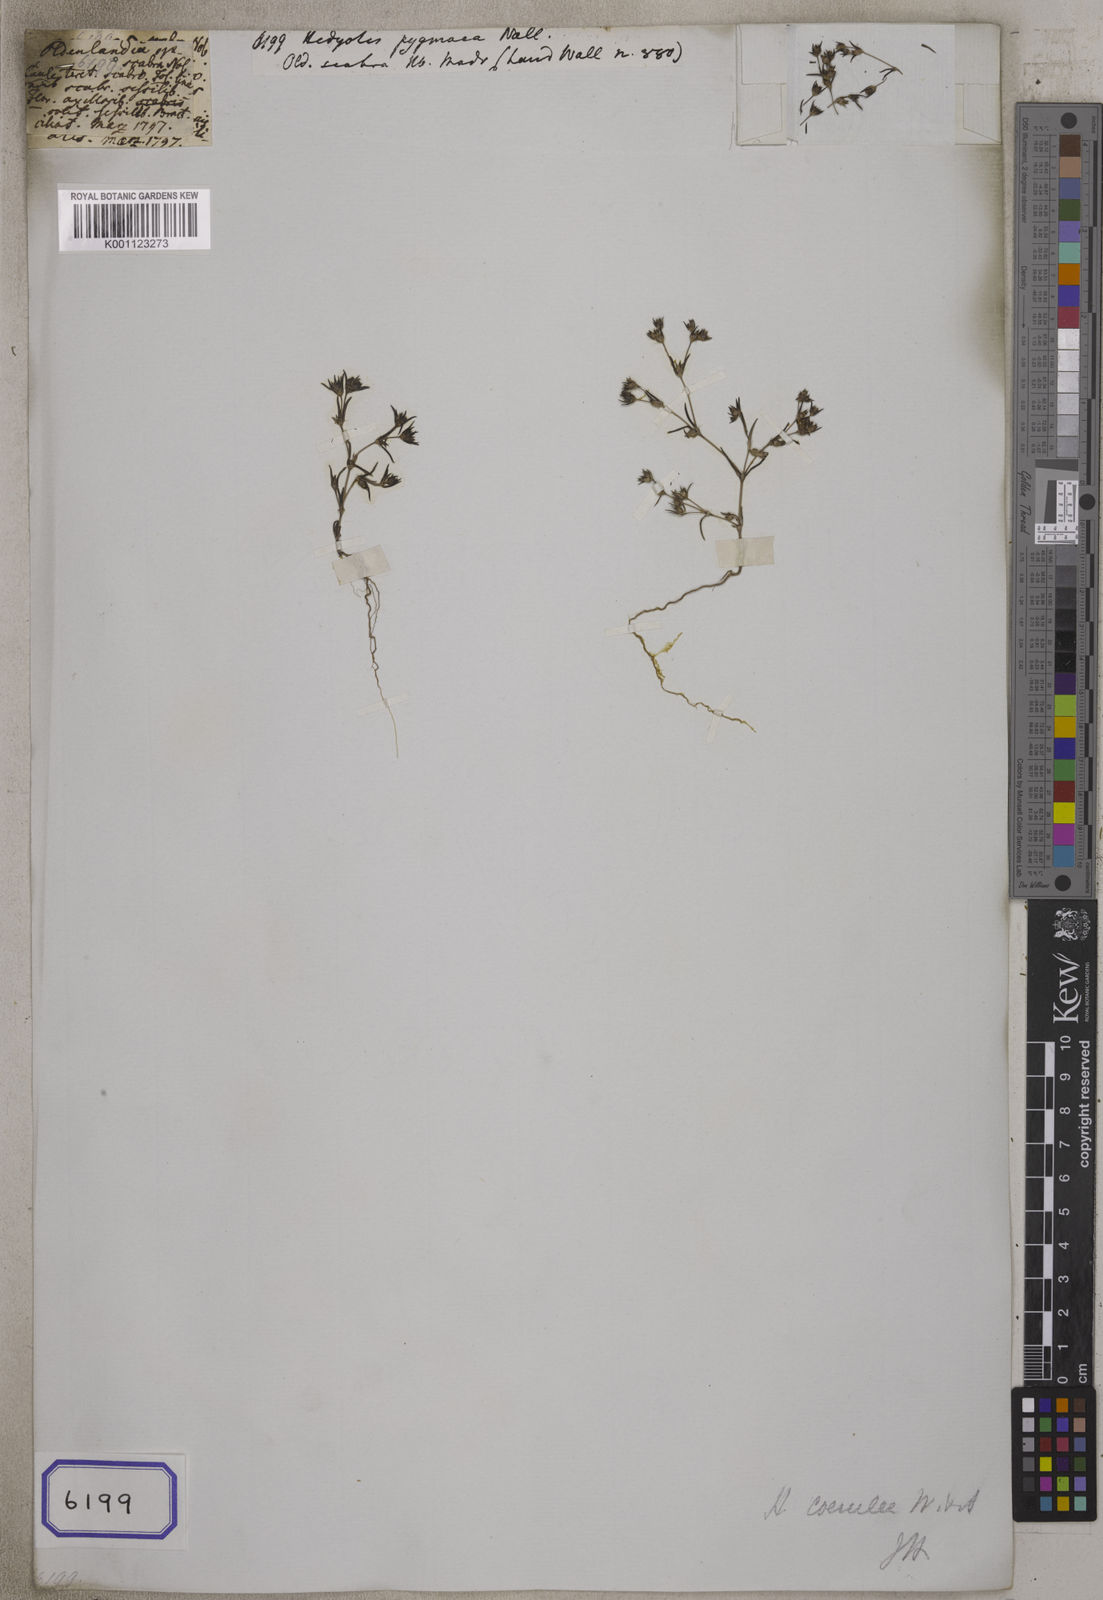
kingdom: Plantae
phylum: Tracheophyta
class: Magnoliopsida
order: Gentianales
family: Rubiaceae
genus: Hedyotis
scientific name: Hedyotis
